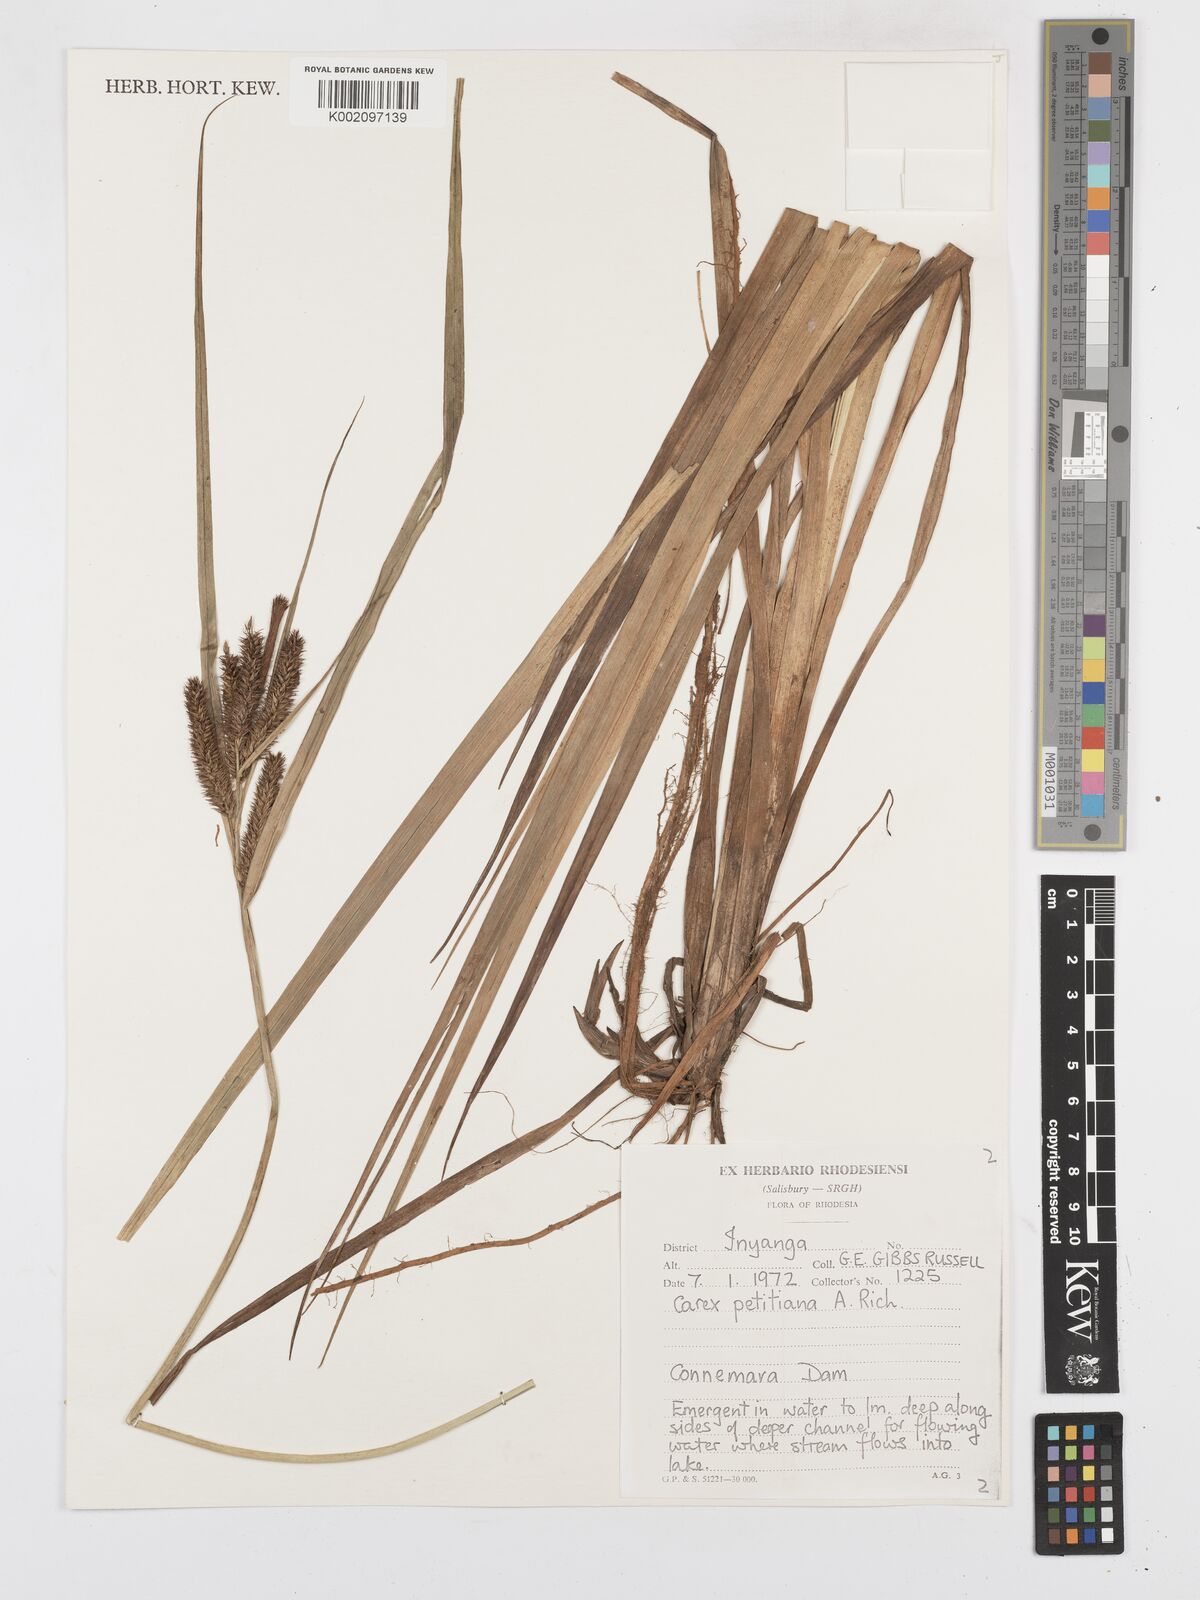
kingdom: Plantae
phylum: Tracheophyta
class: Liliopsida
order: Poales
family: Cyperaceae
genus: Carex
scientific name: Carex petitiana
